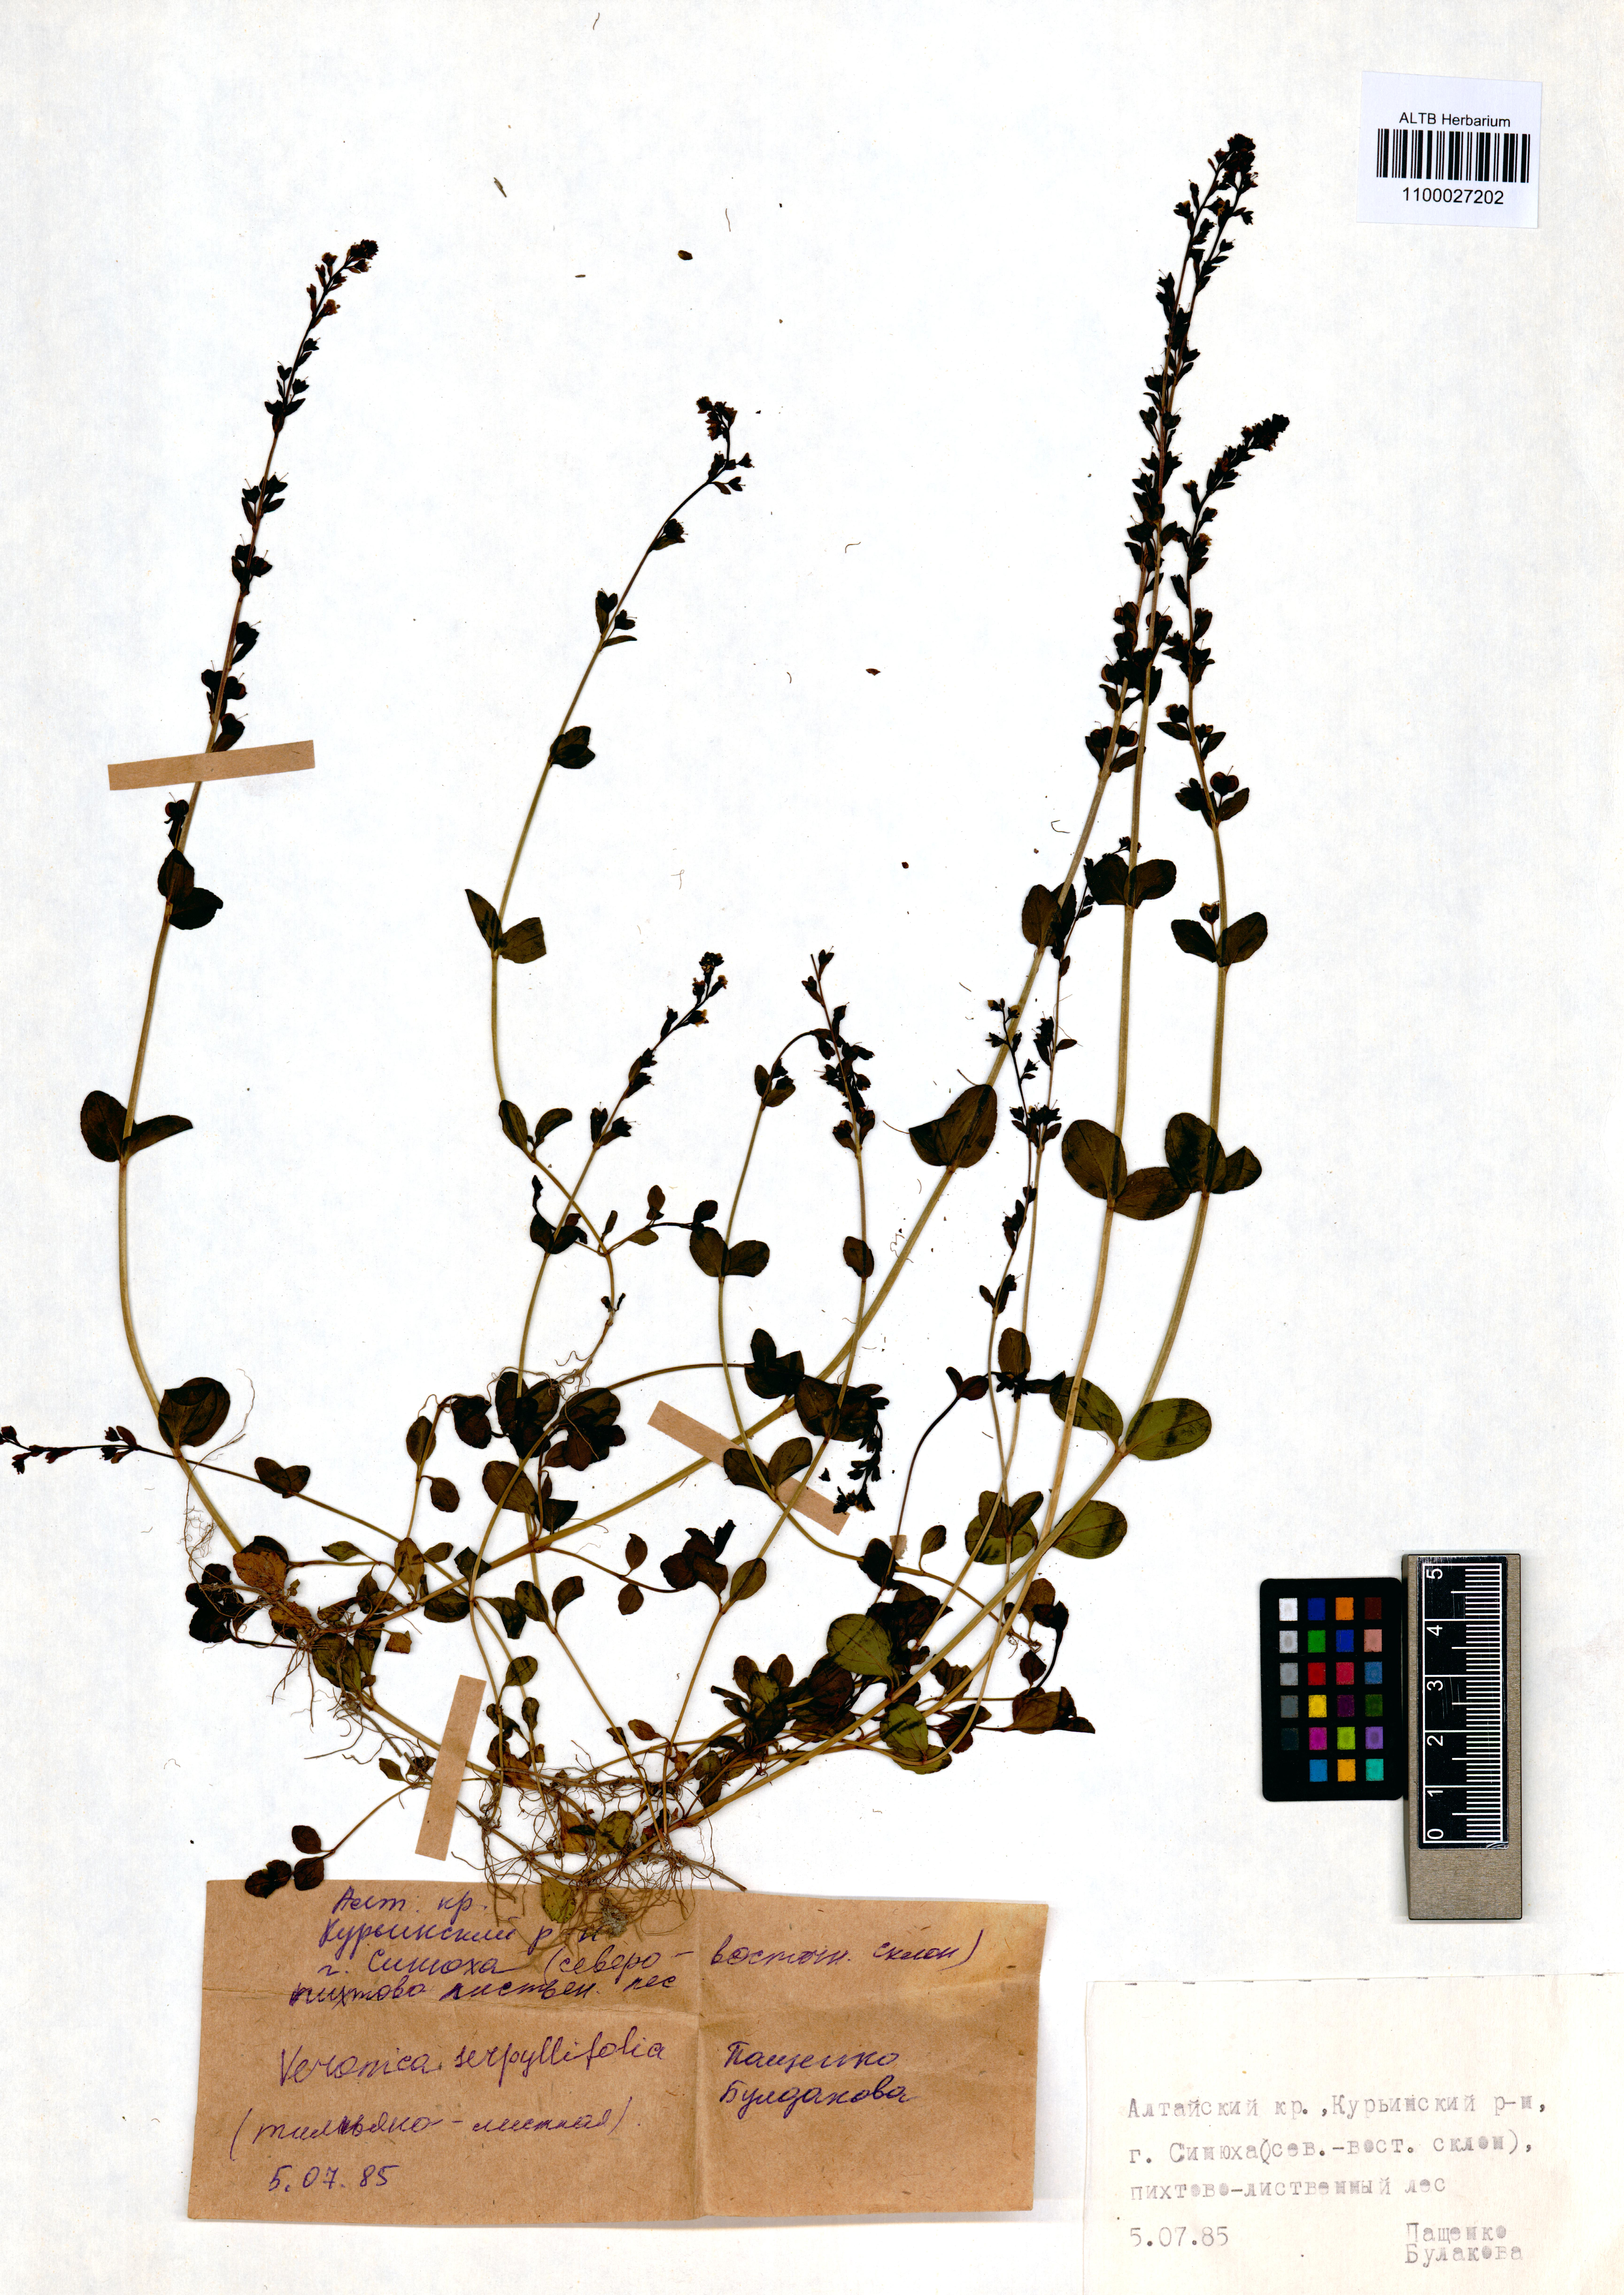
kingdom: Plantae
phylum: Tracheophyta
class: Magnoliopsida
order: Lamiales
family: Plantaginaceae
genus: Veronica
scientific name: Veronica serpyllifolia
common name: Thyme-leaved speedwell
